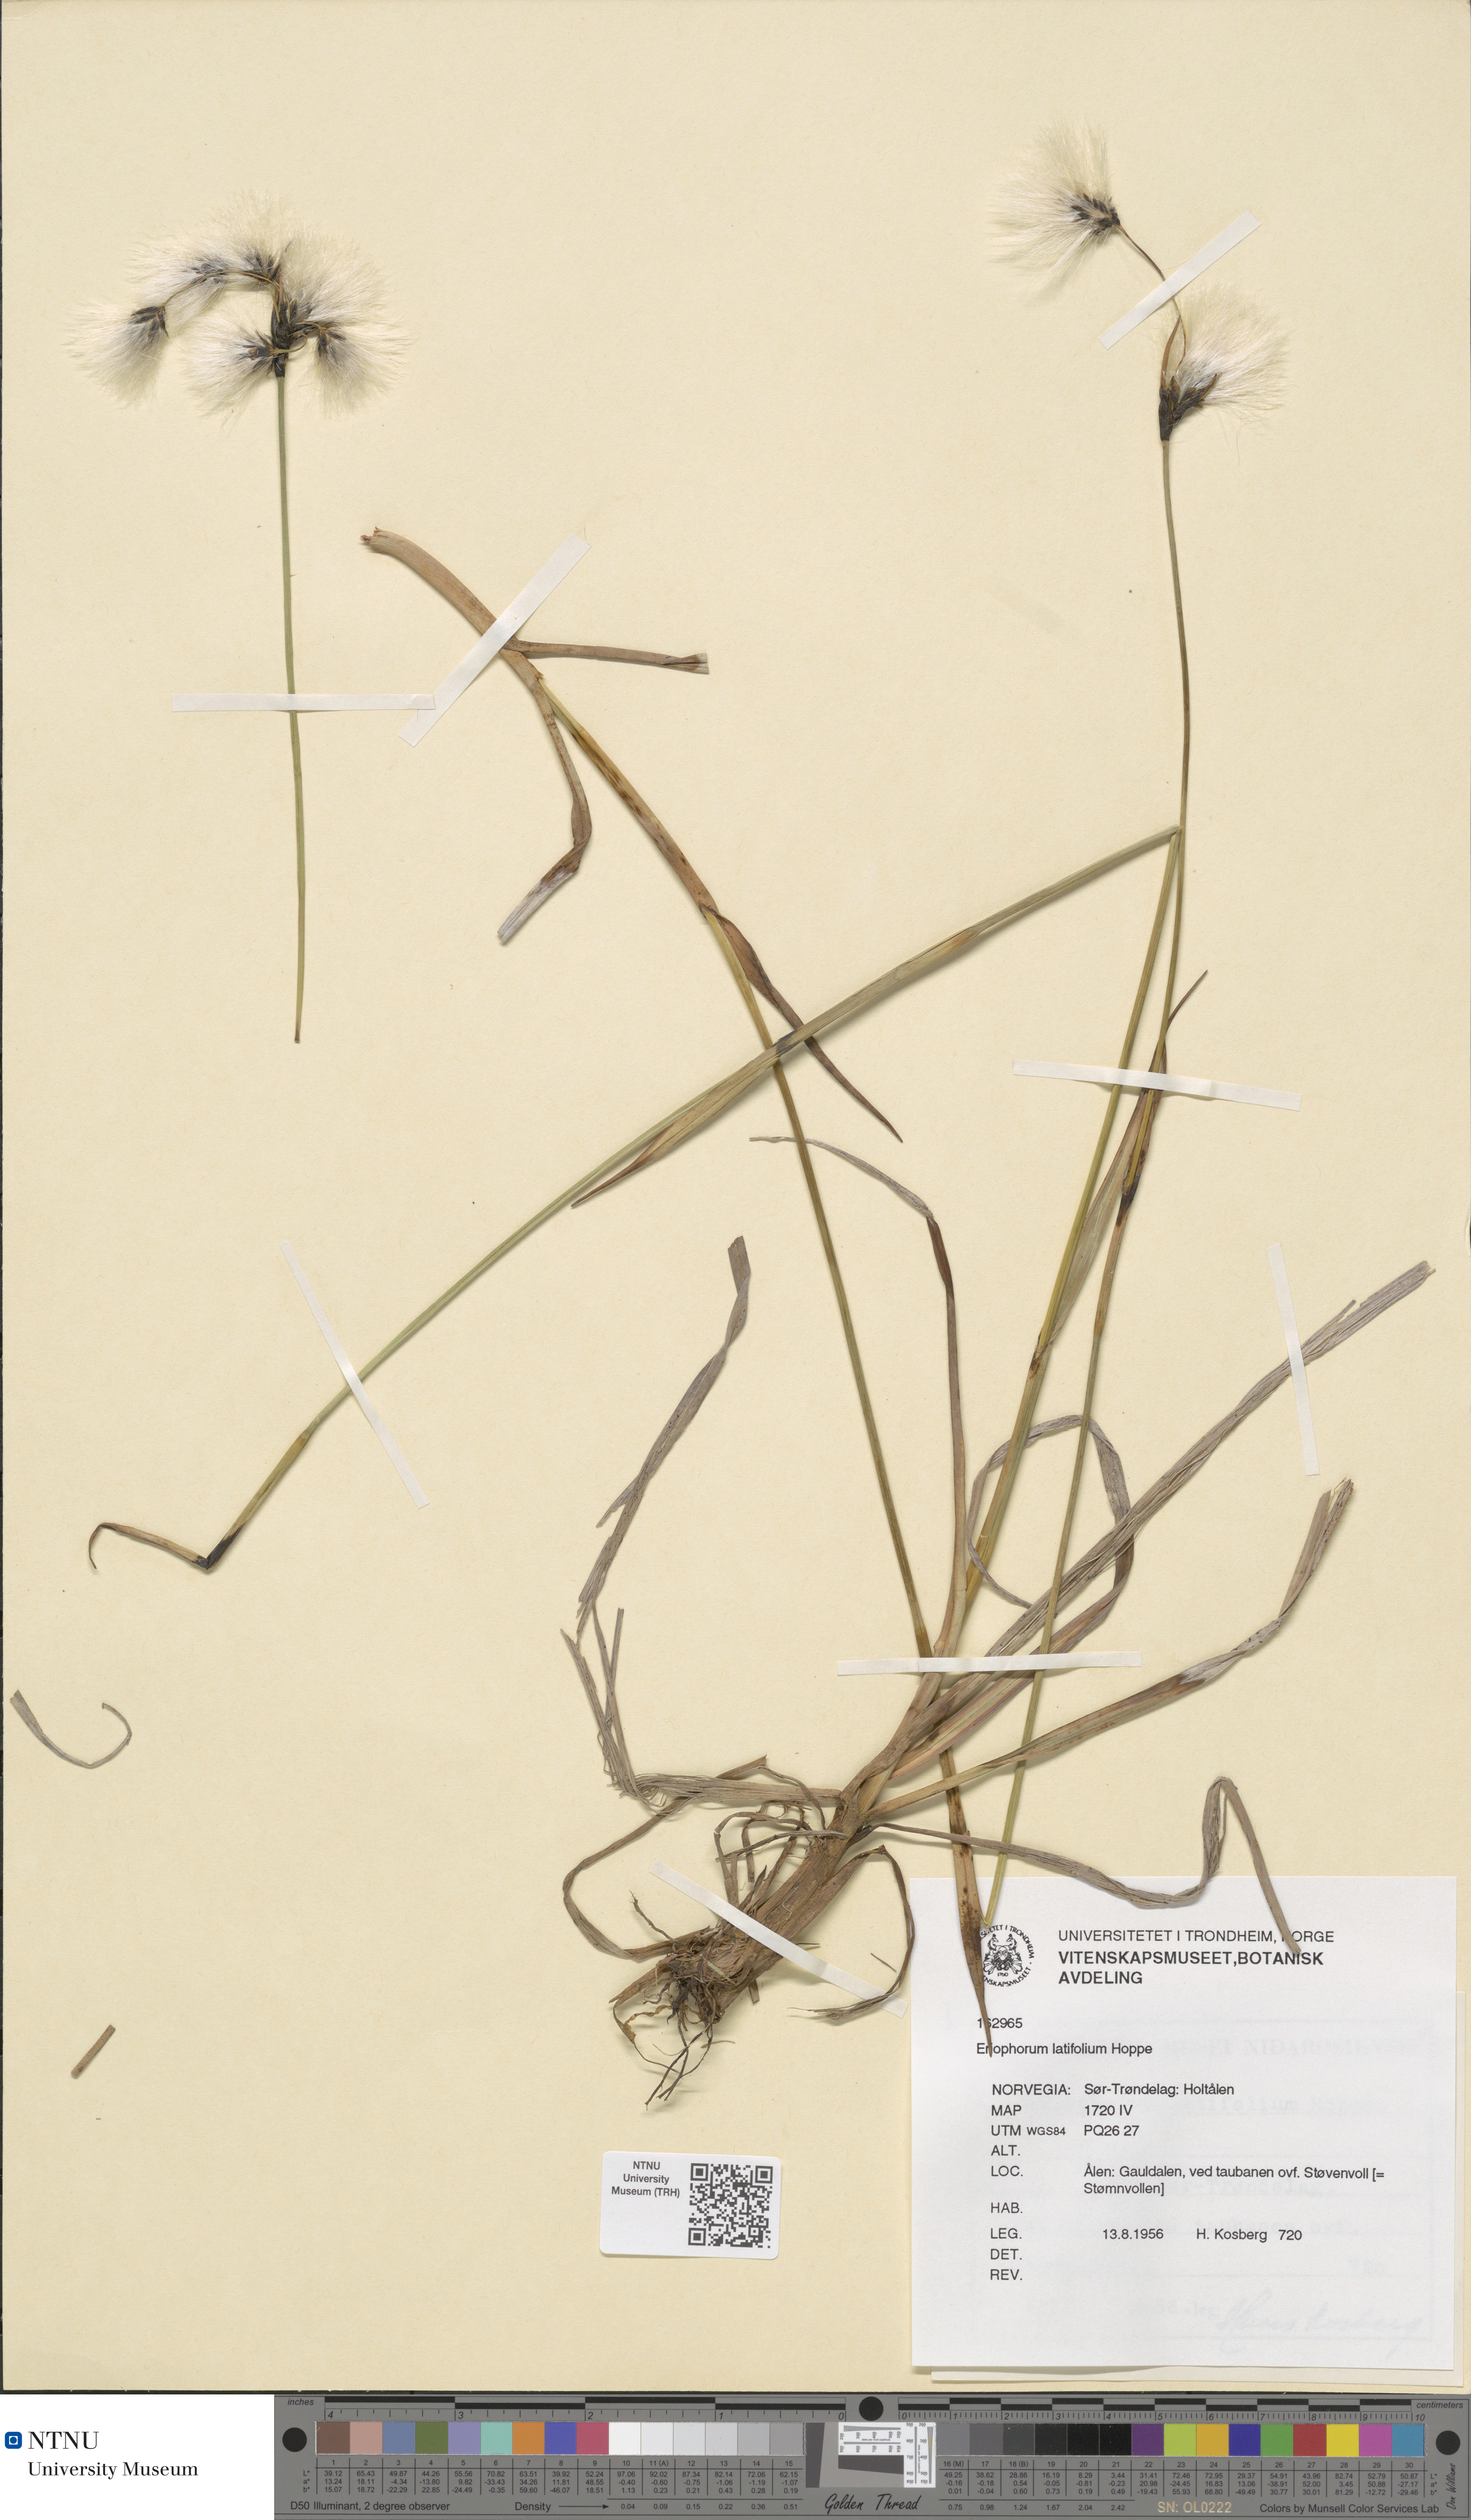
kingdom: Plantae
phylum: Tracheophyta
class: Liliopsida
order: Poales
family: Cyperaceae
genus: Eriophorum
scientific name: Eriophorum latifolium
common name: Broad-leaved cottongrass
